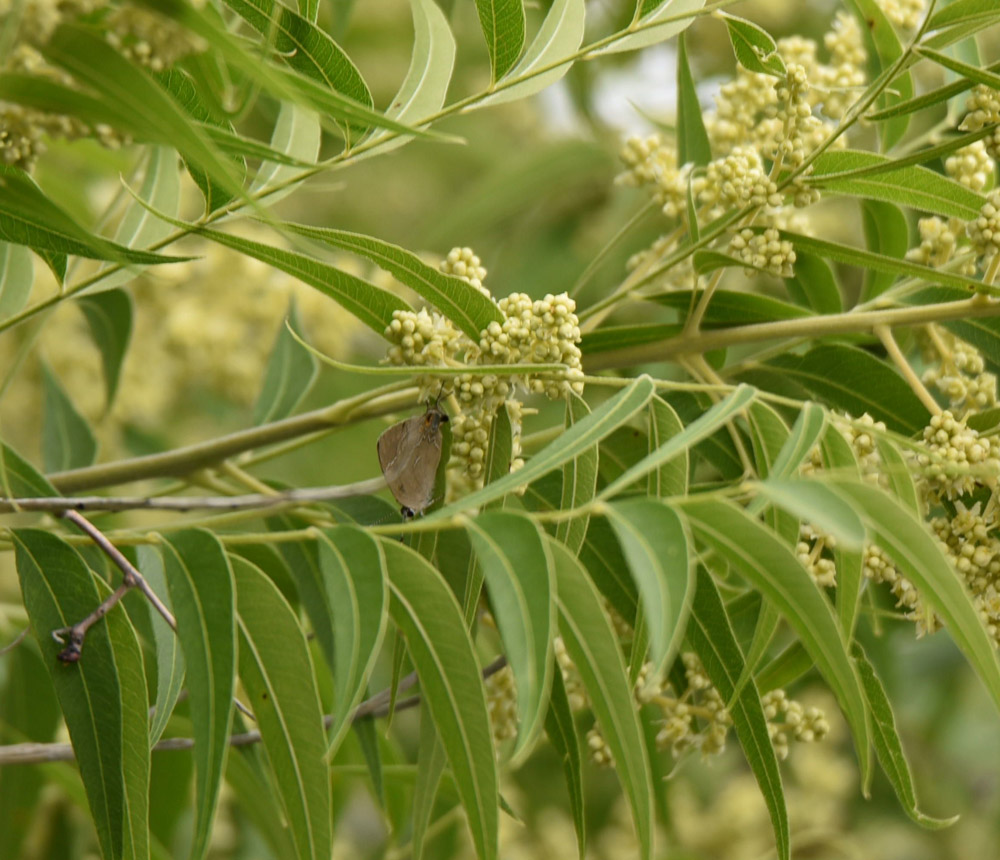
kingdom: Animalia
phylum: Arthropoda
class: Insecta
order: Lepidoptera
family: Lycaenidae
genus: Phaeostrymon
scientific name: Phaeostrymon alcestis
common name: Soapberry hairstreak
